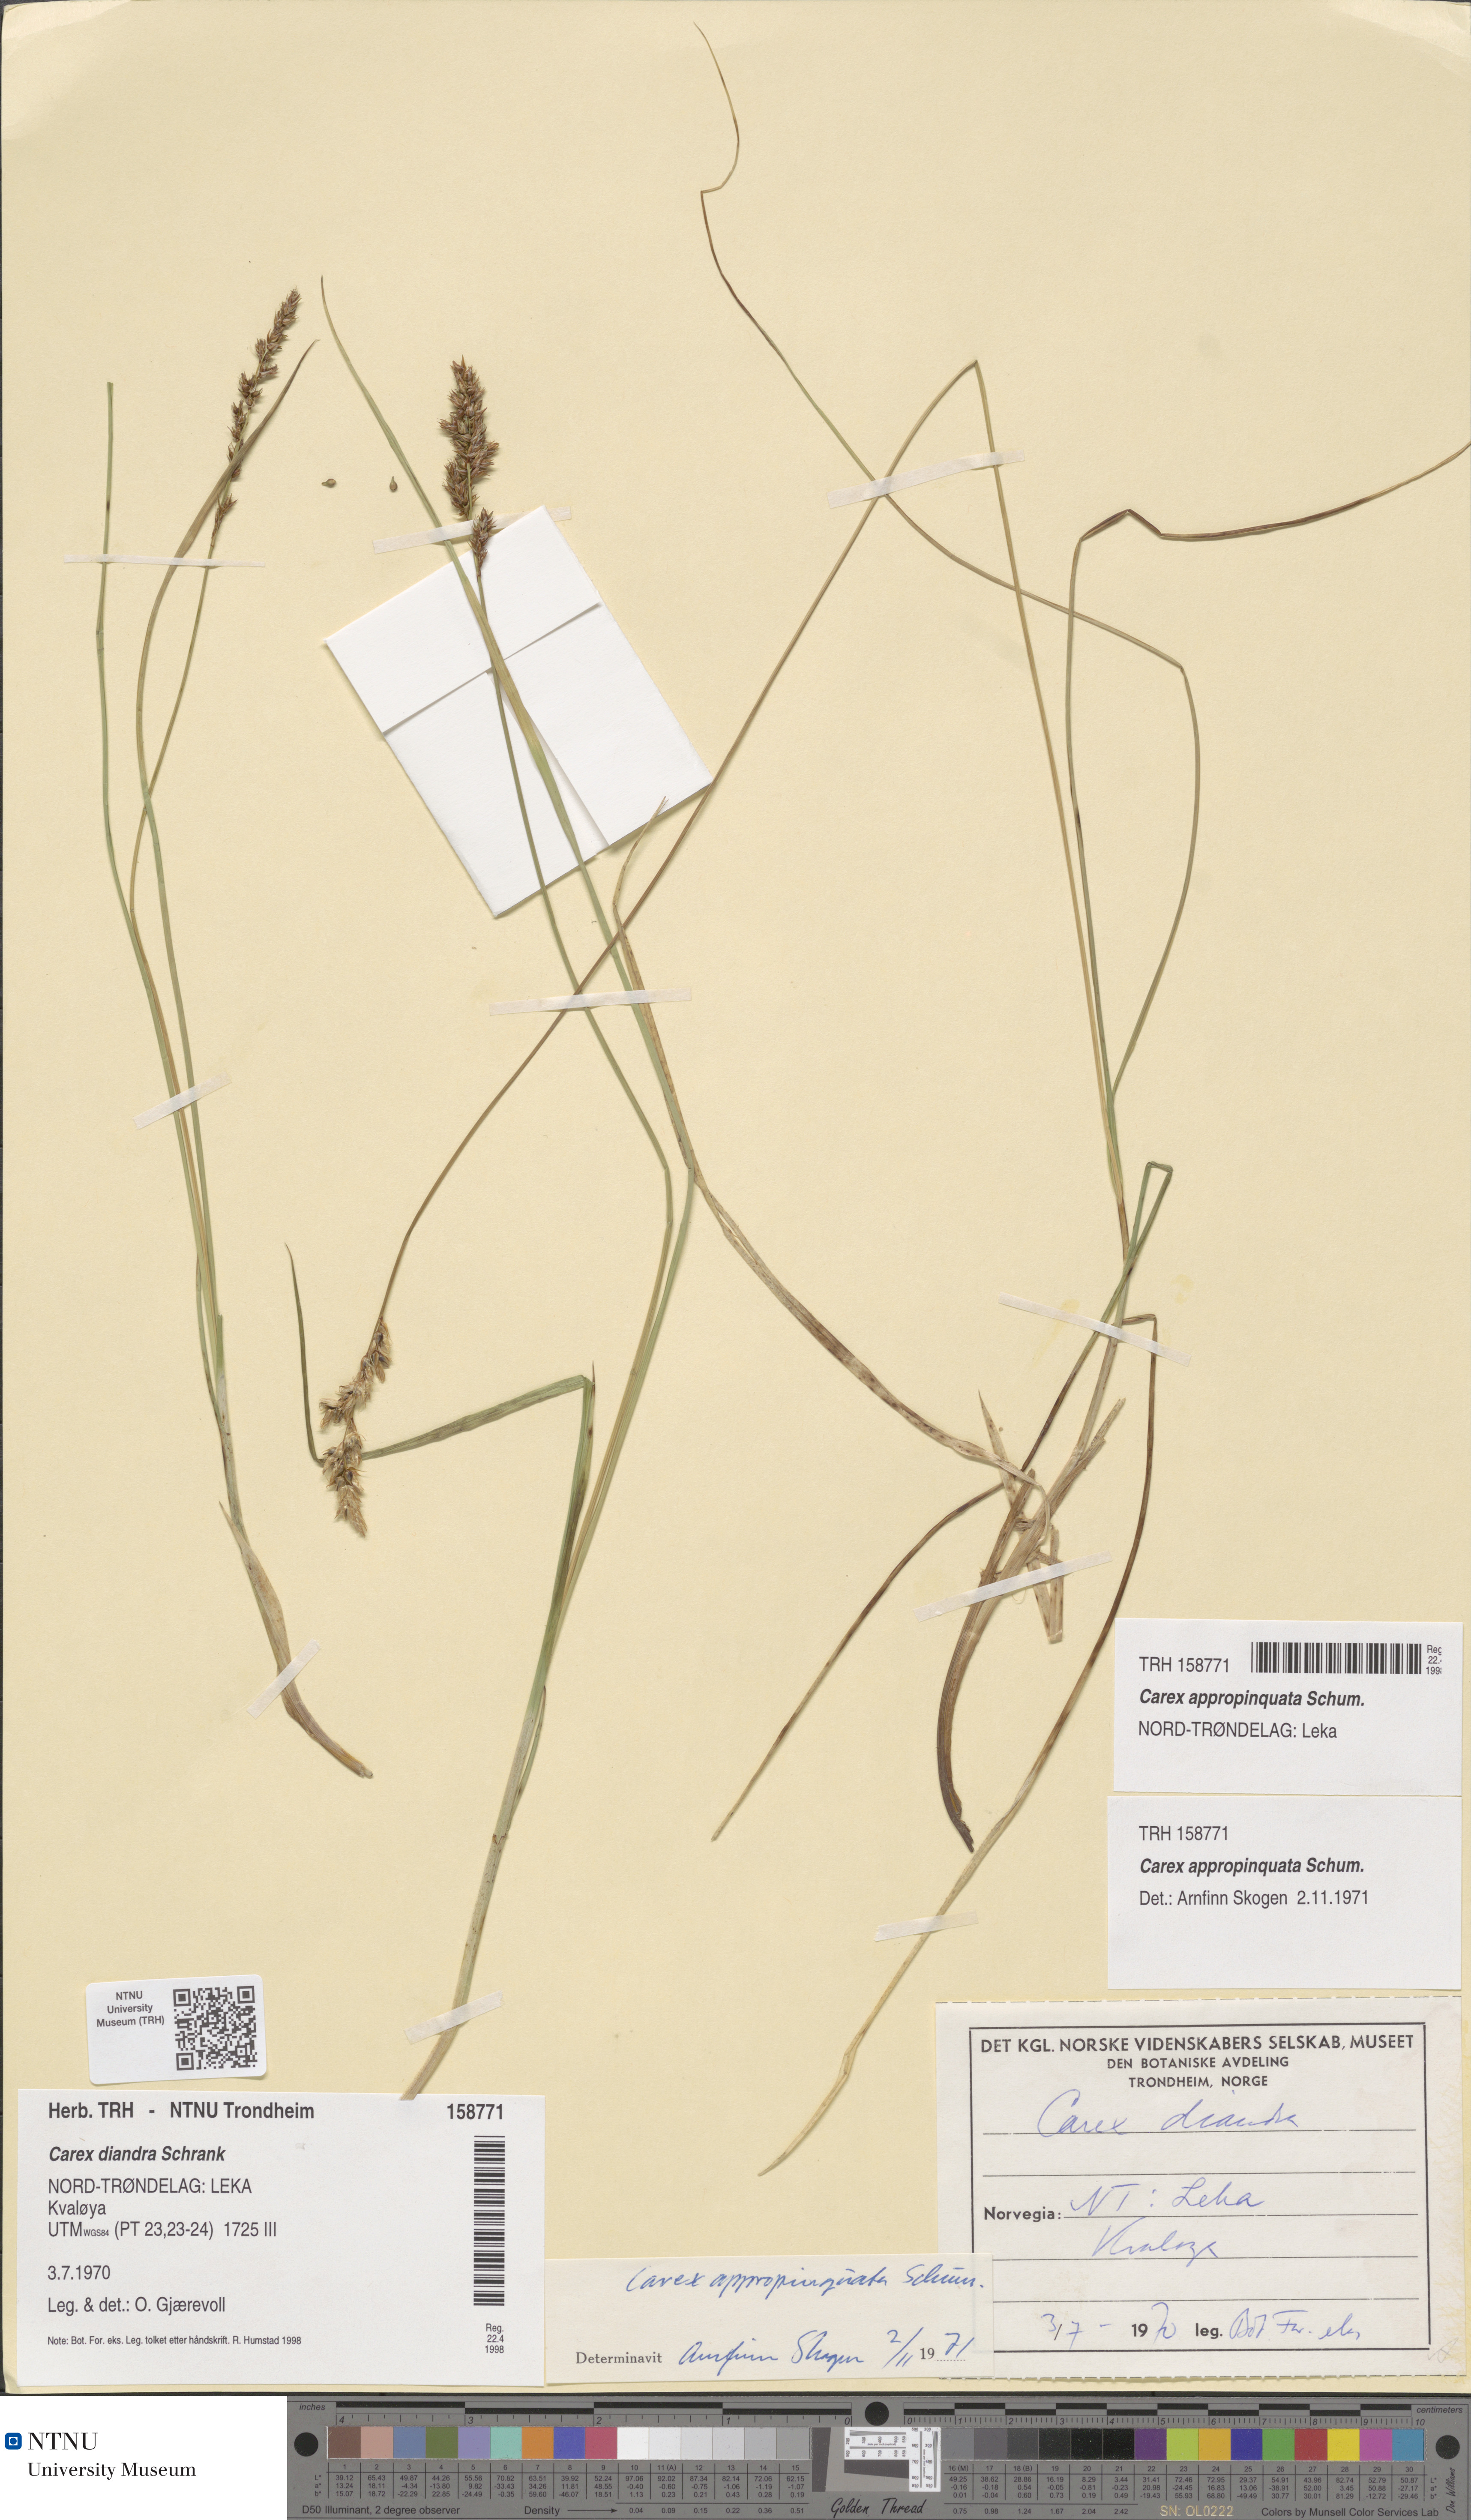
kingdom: Plantae
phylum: Tracheophyta
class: Liliopsida
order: Poales
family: Cyperaceae
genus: Carex
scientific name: Carex appropinquata
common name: Fibrous tussock-sedge
